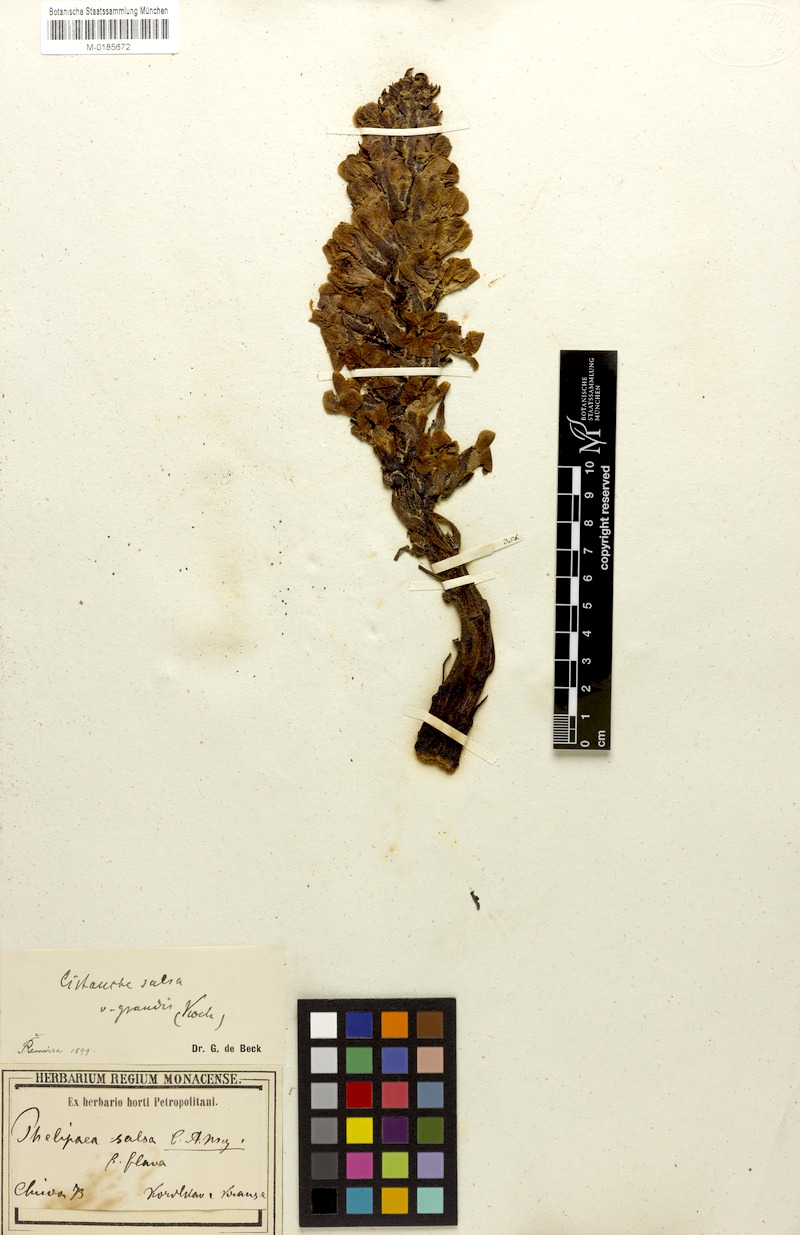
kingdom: Plantae
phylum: Tracheophyta
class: Magnoliopsida
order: Lamiales
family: Orobanchaceae
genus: Cistanche
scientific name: Cistanche salsa
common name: Broomrape
